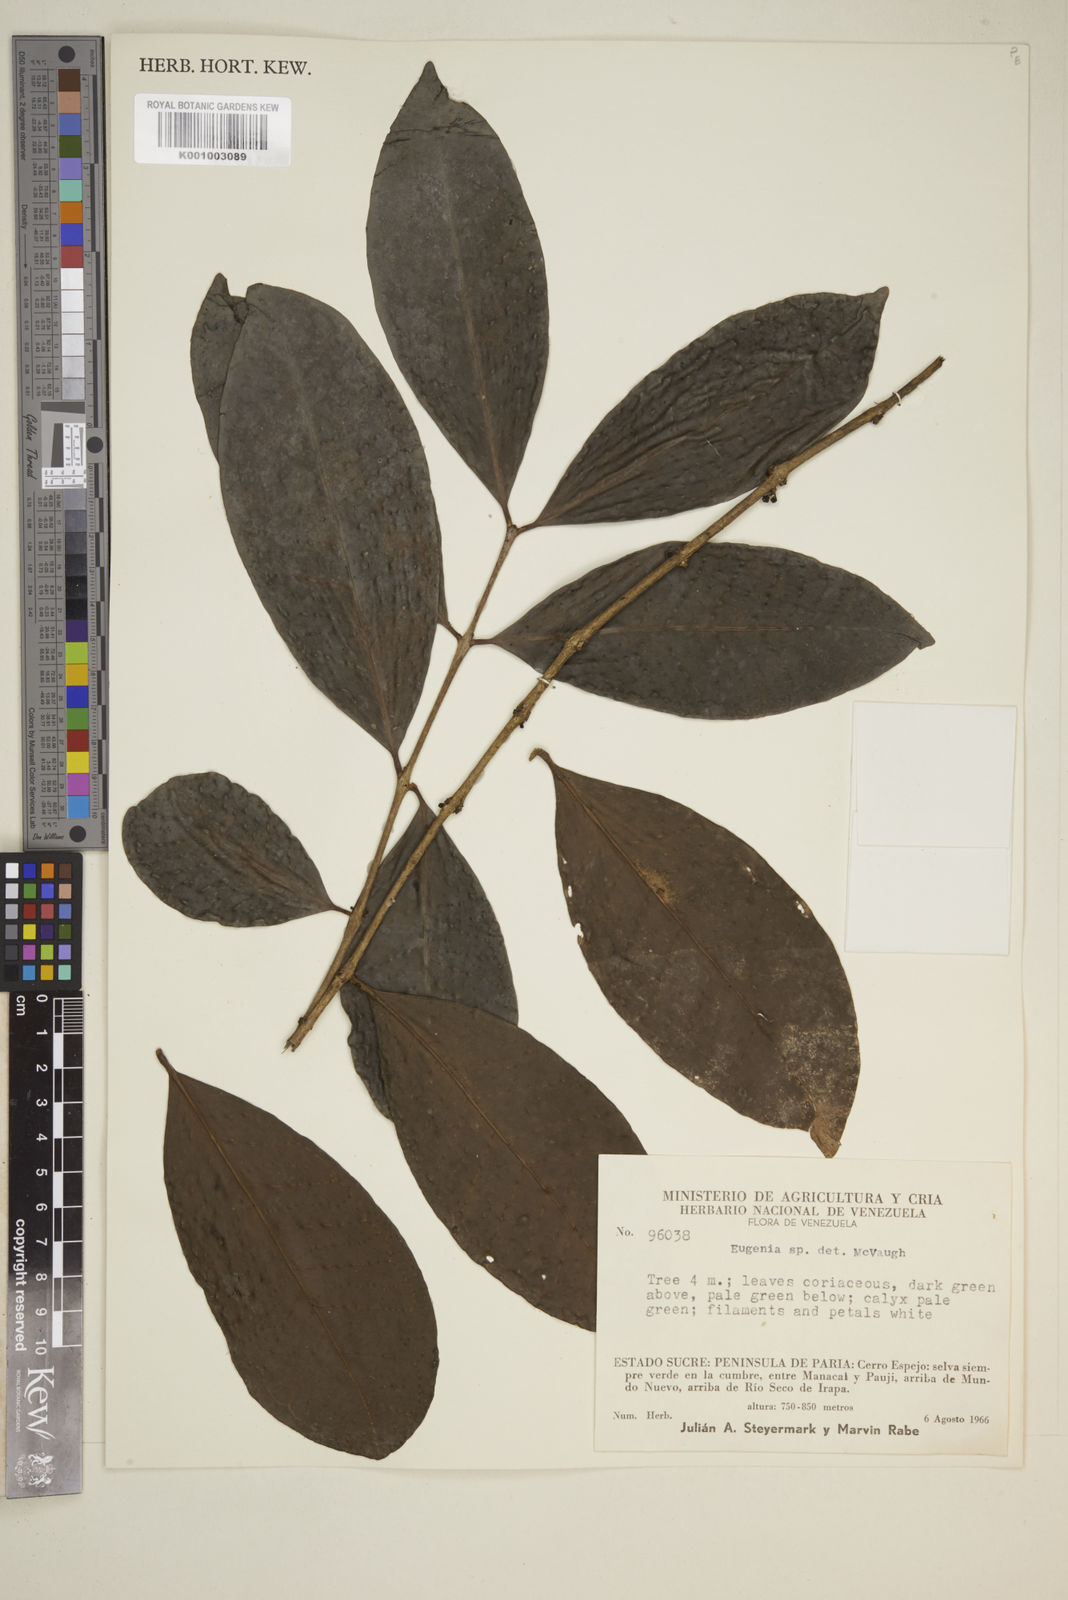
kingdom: Plantae
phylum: Tracheophyta
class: Magnoliopsida
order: Myrtales
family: Myrtaceae
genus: Eugenia
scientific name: Eugenia
